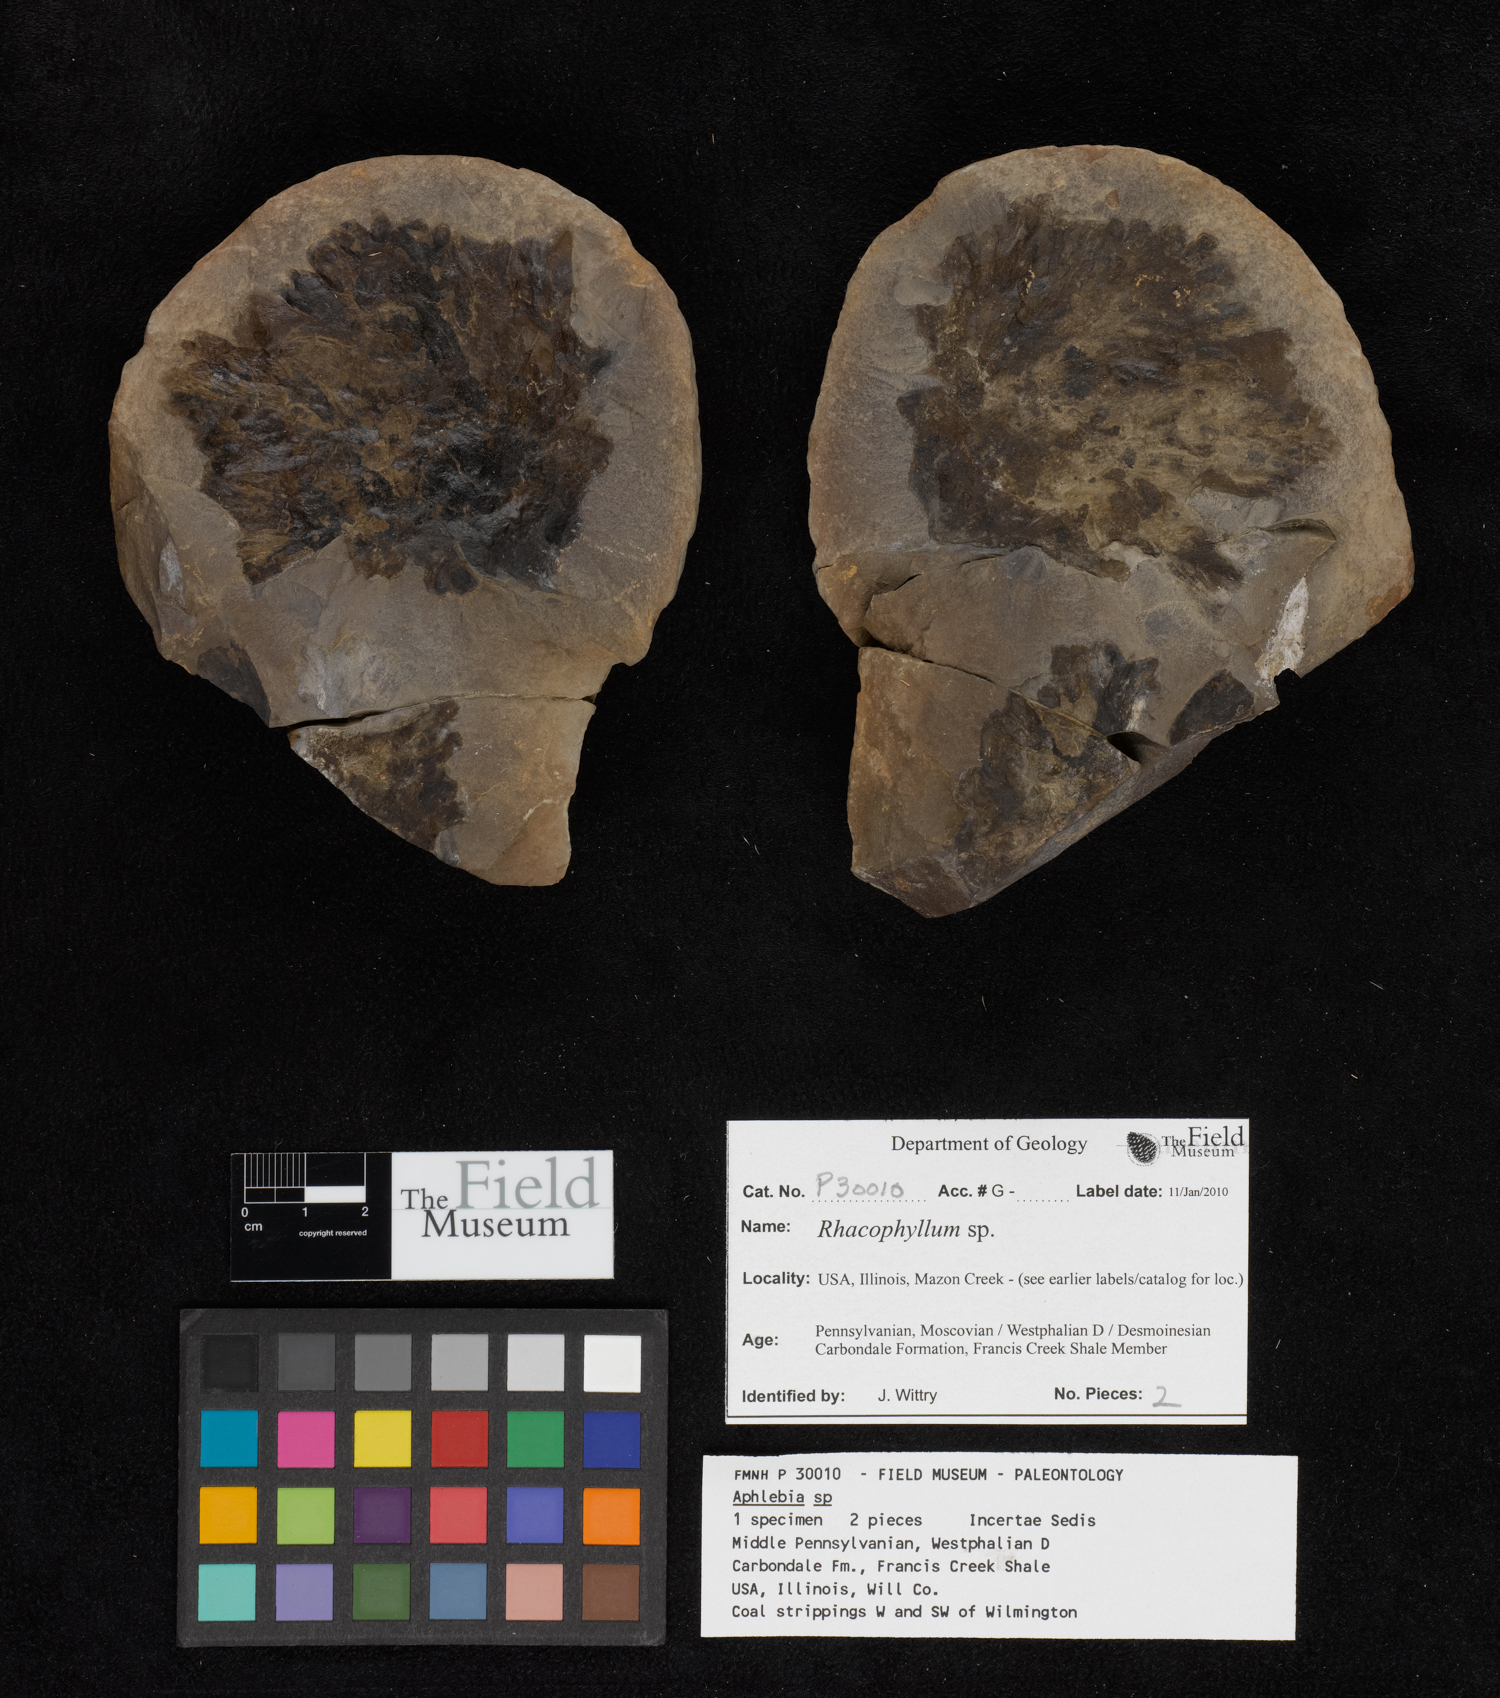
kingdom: Plantae
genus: Rhacophyllum
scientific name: Rhacophyllum
